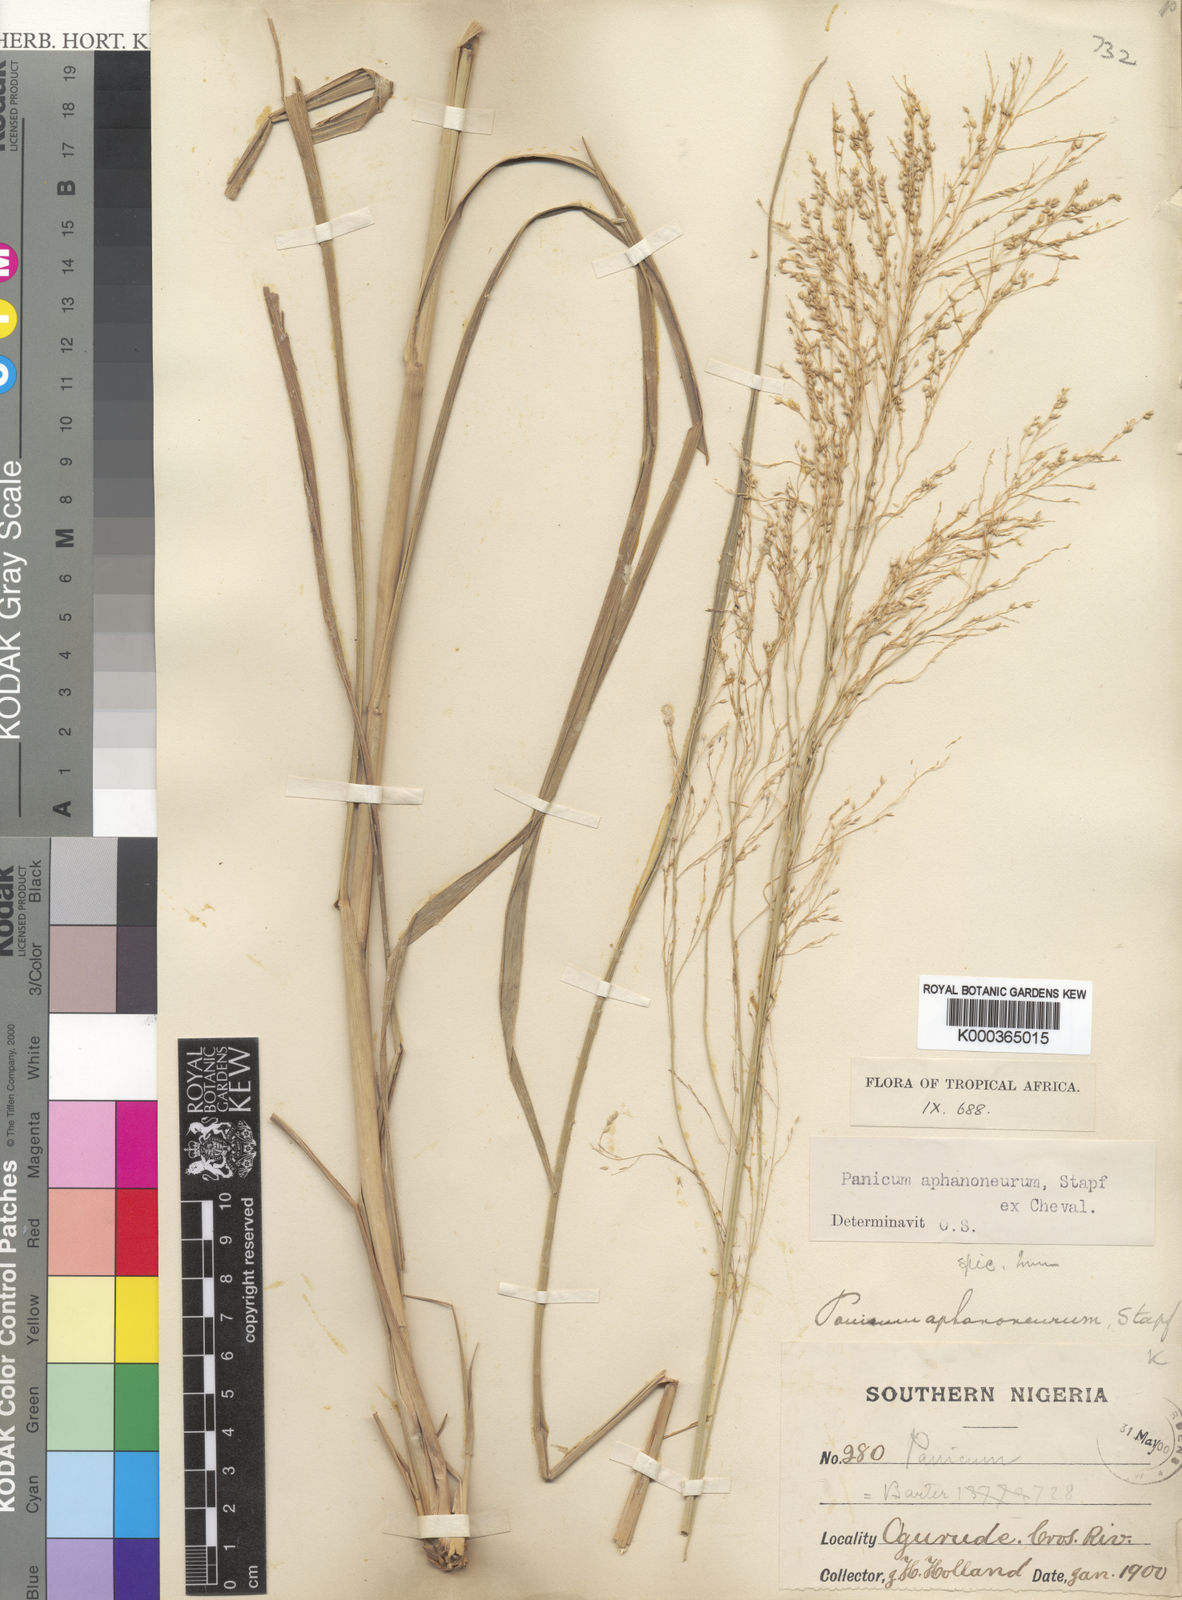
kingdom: Plantae
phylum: Tracheophyta
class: Liliopsida
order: Poales
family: Poaceae
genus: Panicum
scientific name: Panicum fluviicola
